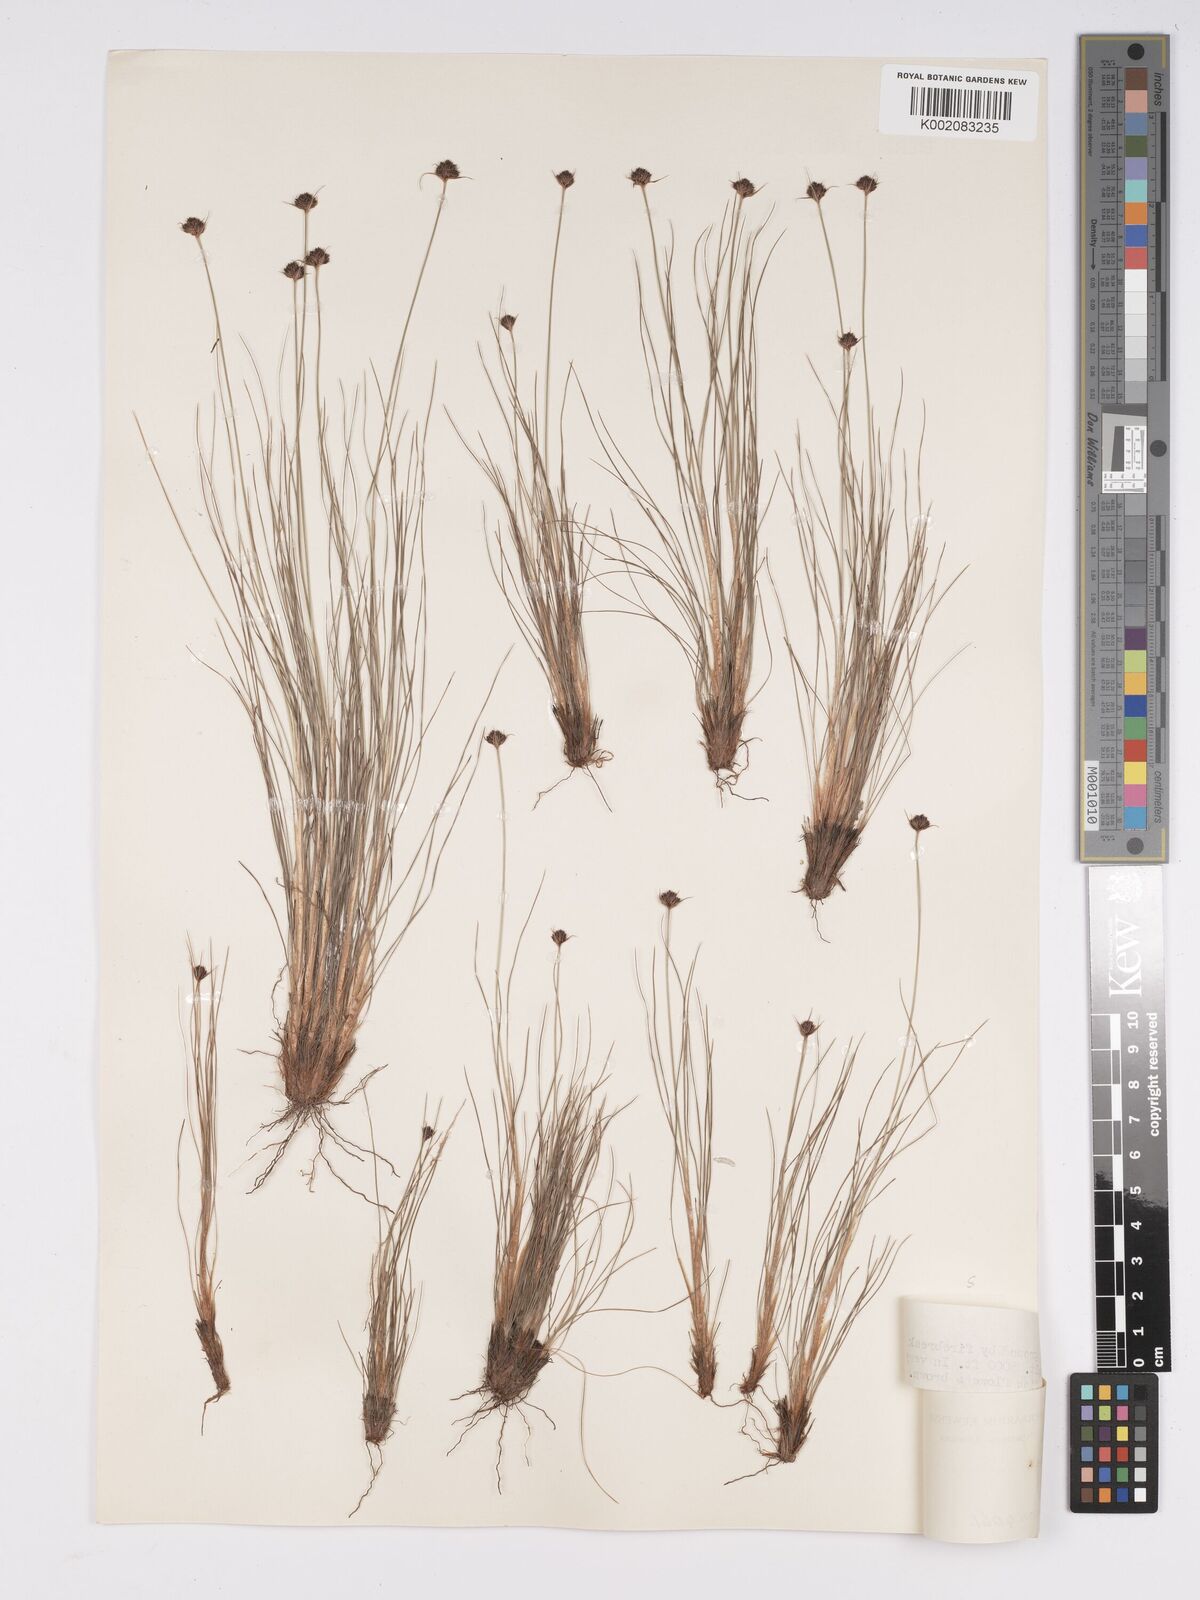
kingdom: Plantae
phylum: Tracheophyta
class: Liliopsida
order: Poales
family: Cyperaceae
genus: Bulbostylis
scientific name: Bulbostylis filamentosa
